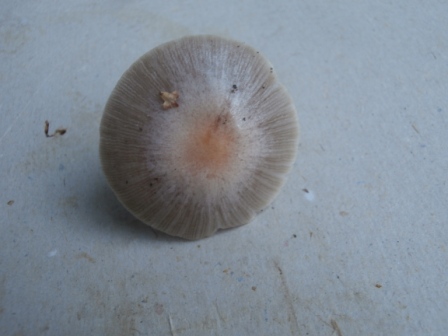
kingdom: Fungi
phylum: Basidiomycota
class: Agaricomycetes
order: Agaricales
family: Bolbitiaceae
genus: Bolbitius
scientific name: Bolbitius coprophilus
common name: rosa gulhat
